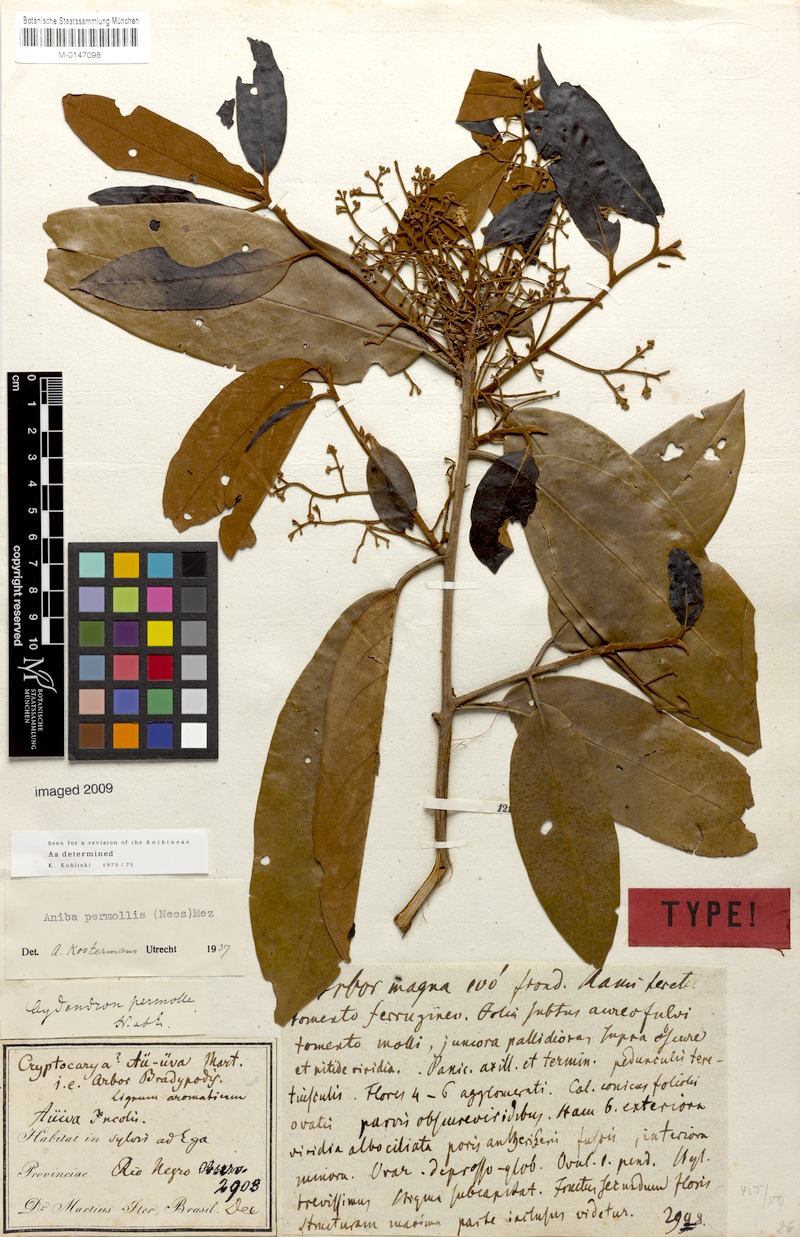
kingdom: Plantae
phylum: Tracheophyta
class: Magnoliopsida
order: Laurales
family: Lauraceae
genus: Aniba
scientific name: Aniba permollis
